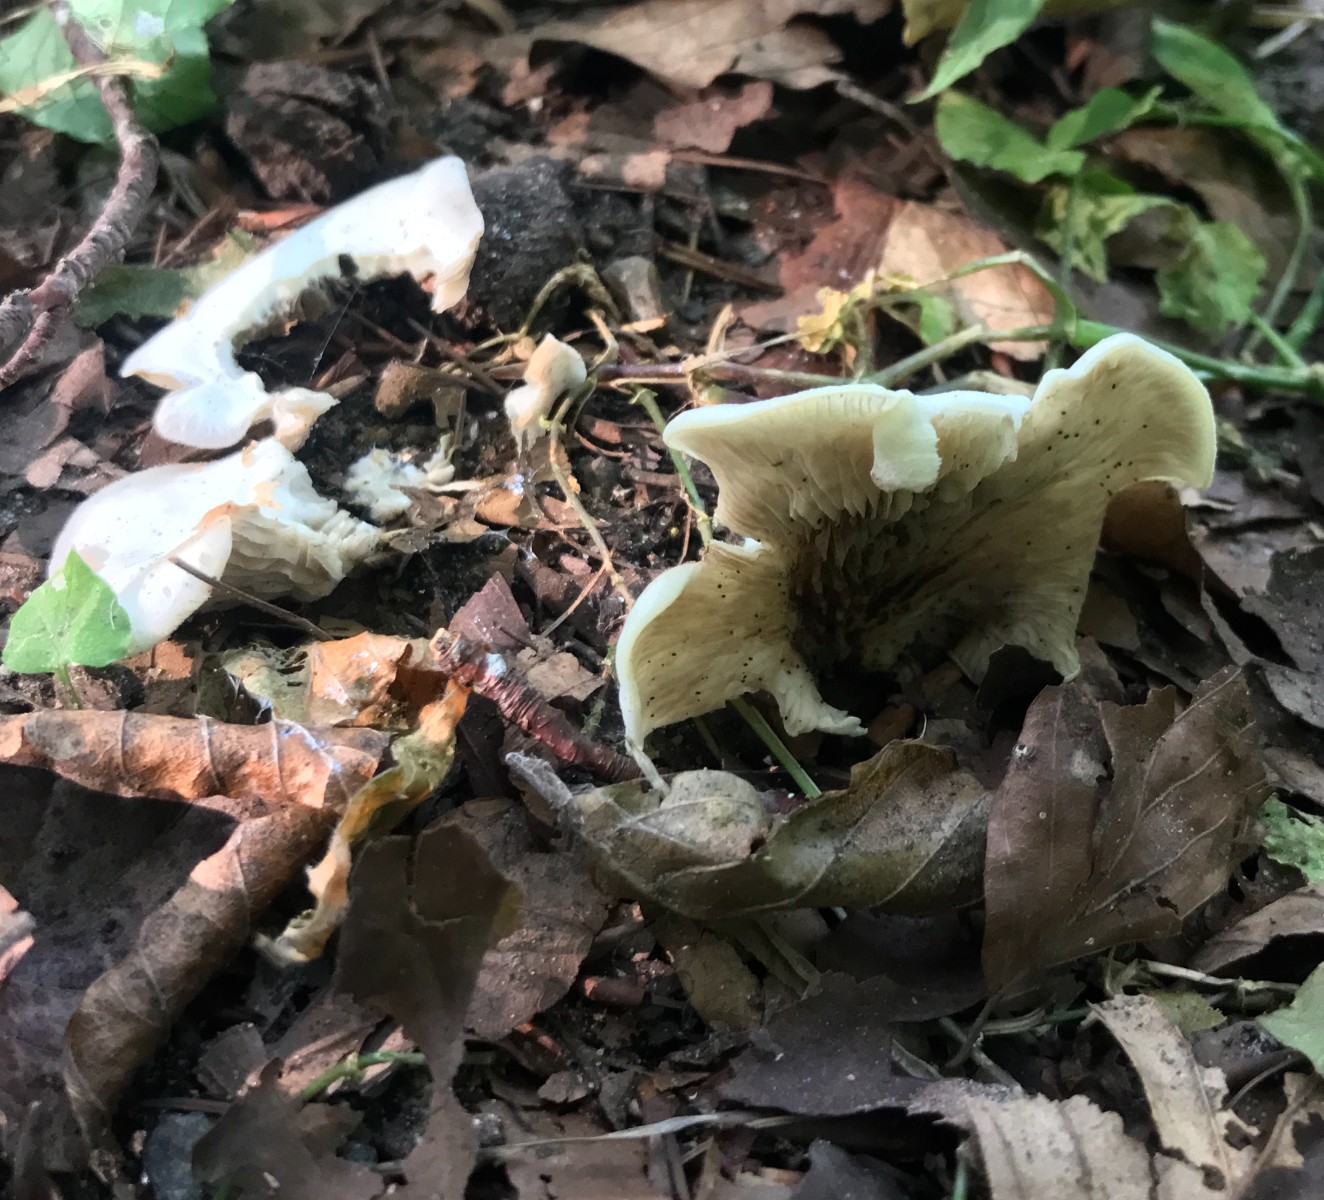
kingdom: Fungi
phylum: Basidiomycota
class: Agaricomycetes
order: Agaricales
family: Crepidotaceae
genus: Crepidotus
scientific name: Crepidotus
